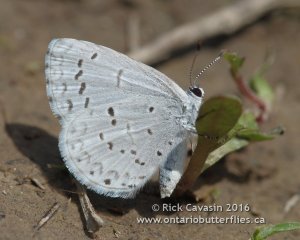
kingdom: Animalia
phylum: Arthropoda
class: Insecta
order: Lepidoptera
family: Lycaenidae
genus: Celastrina
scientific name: Celastrina
